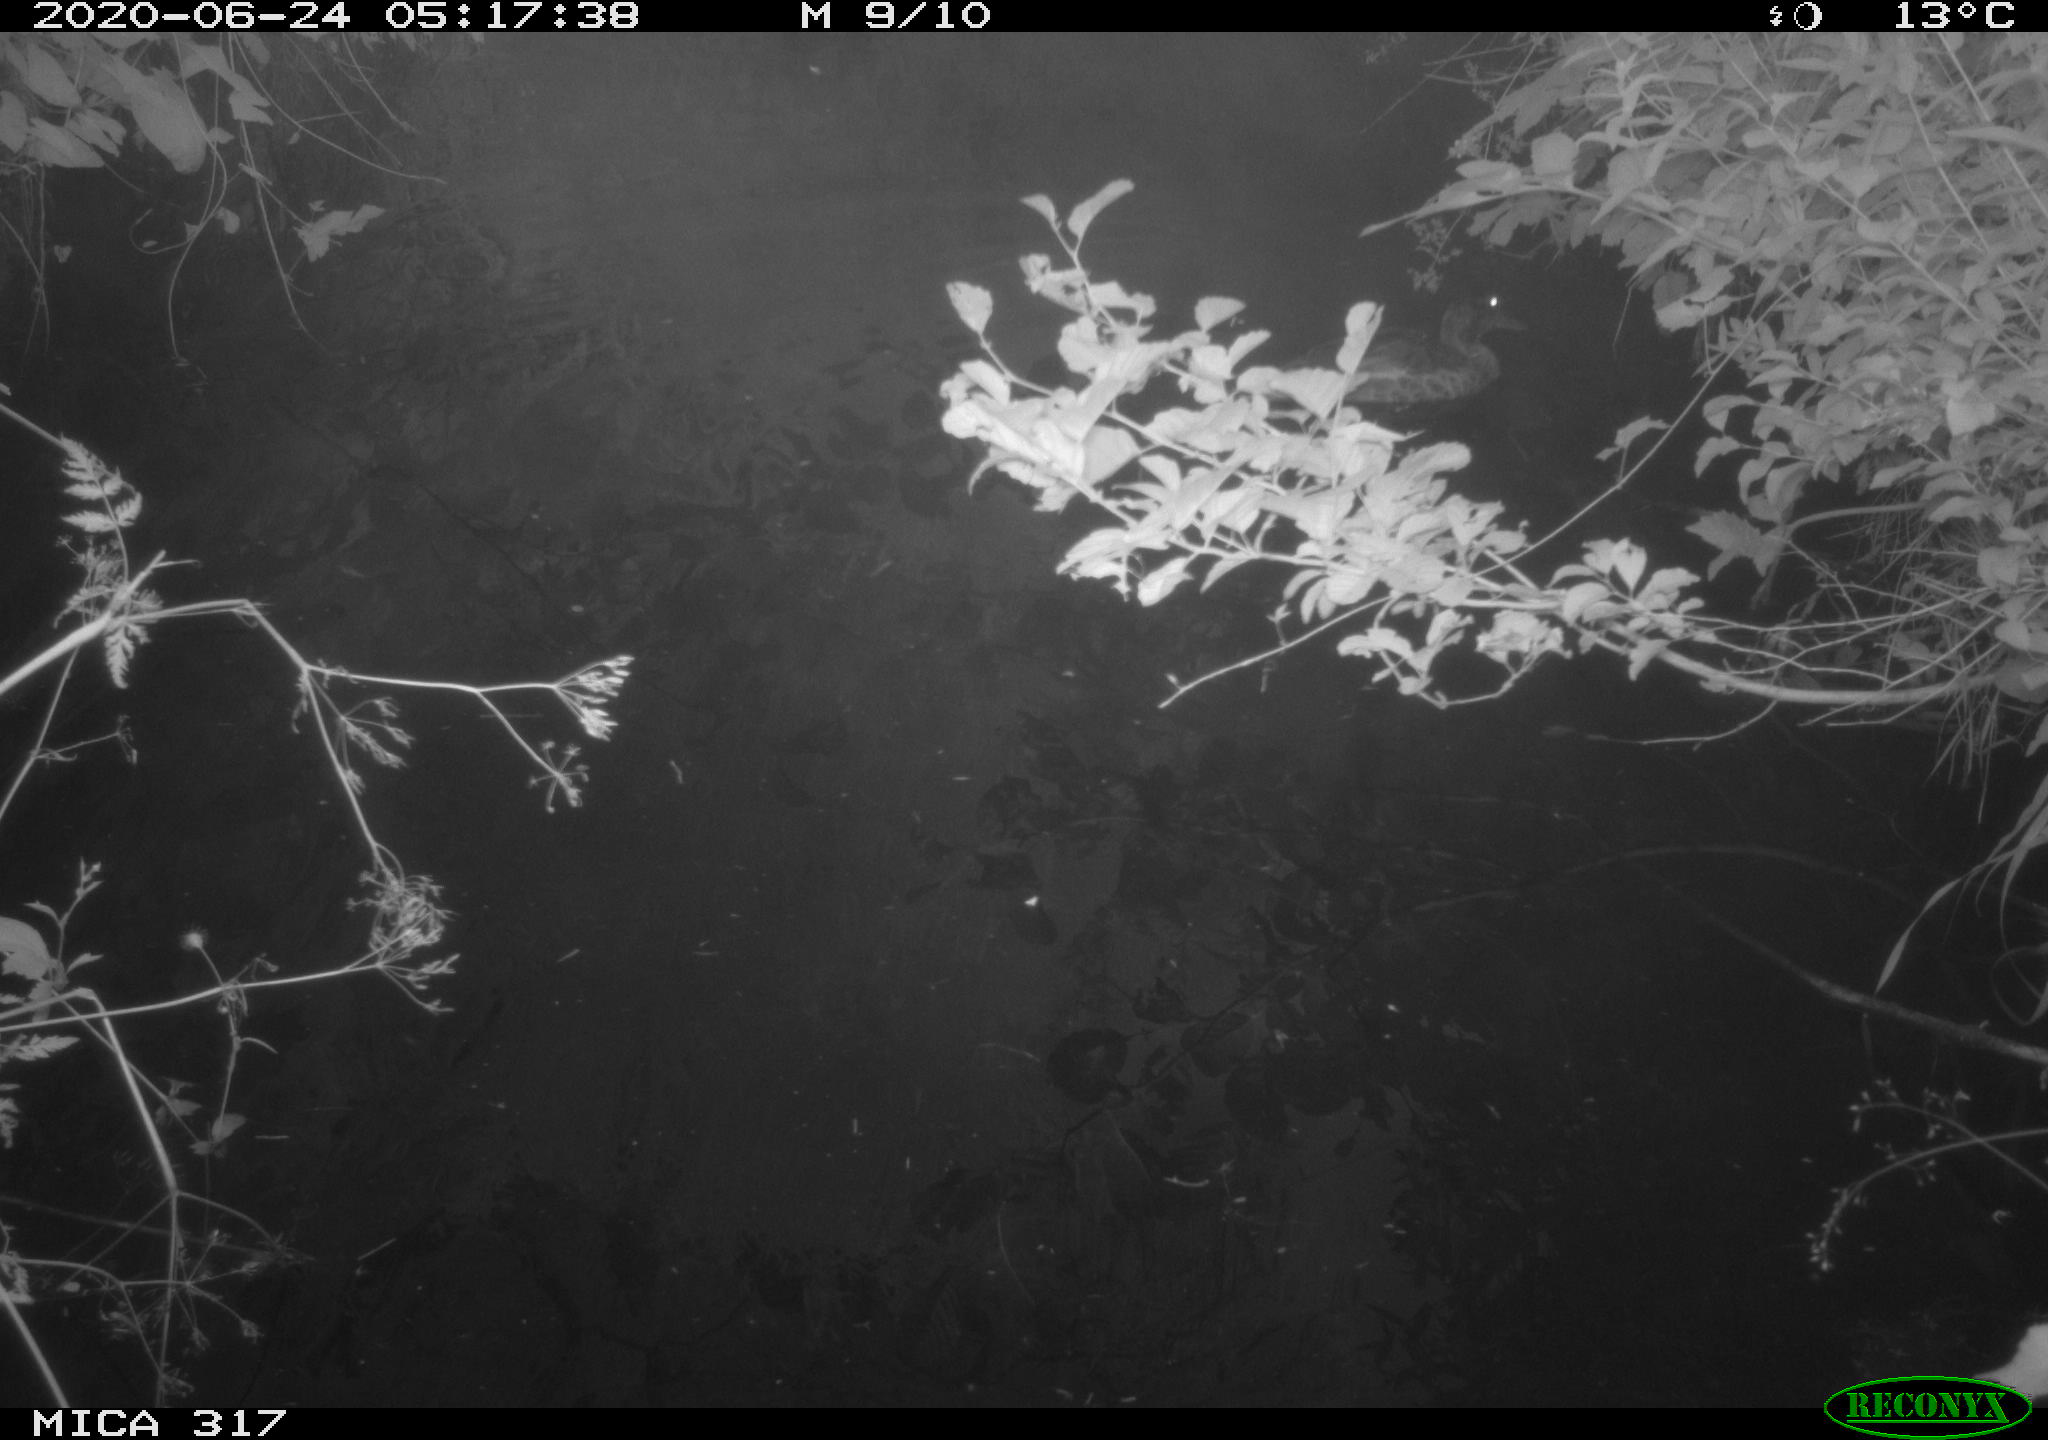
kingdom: Animalia
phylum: Chordata
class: Aves
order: Anseriformes
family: Anatidae
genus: Anas
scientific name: Anas platyrhynchos
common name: Mallard
